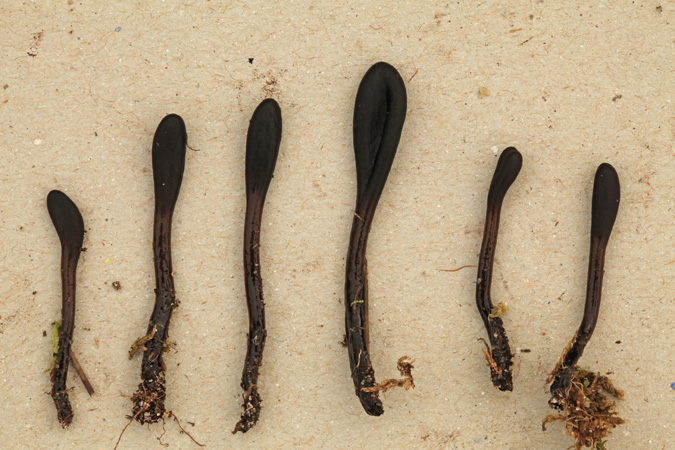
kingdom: Fungi
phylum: Ascomycota
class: Geoglossomycetes
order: Geoglossales
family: Geoglossaceae
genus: Glutinoglossum
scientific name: Glutinoglossum glutinosum
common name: slimet jordtunge
